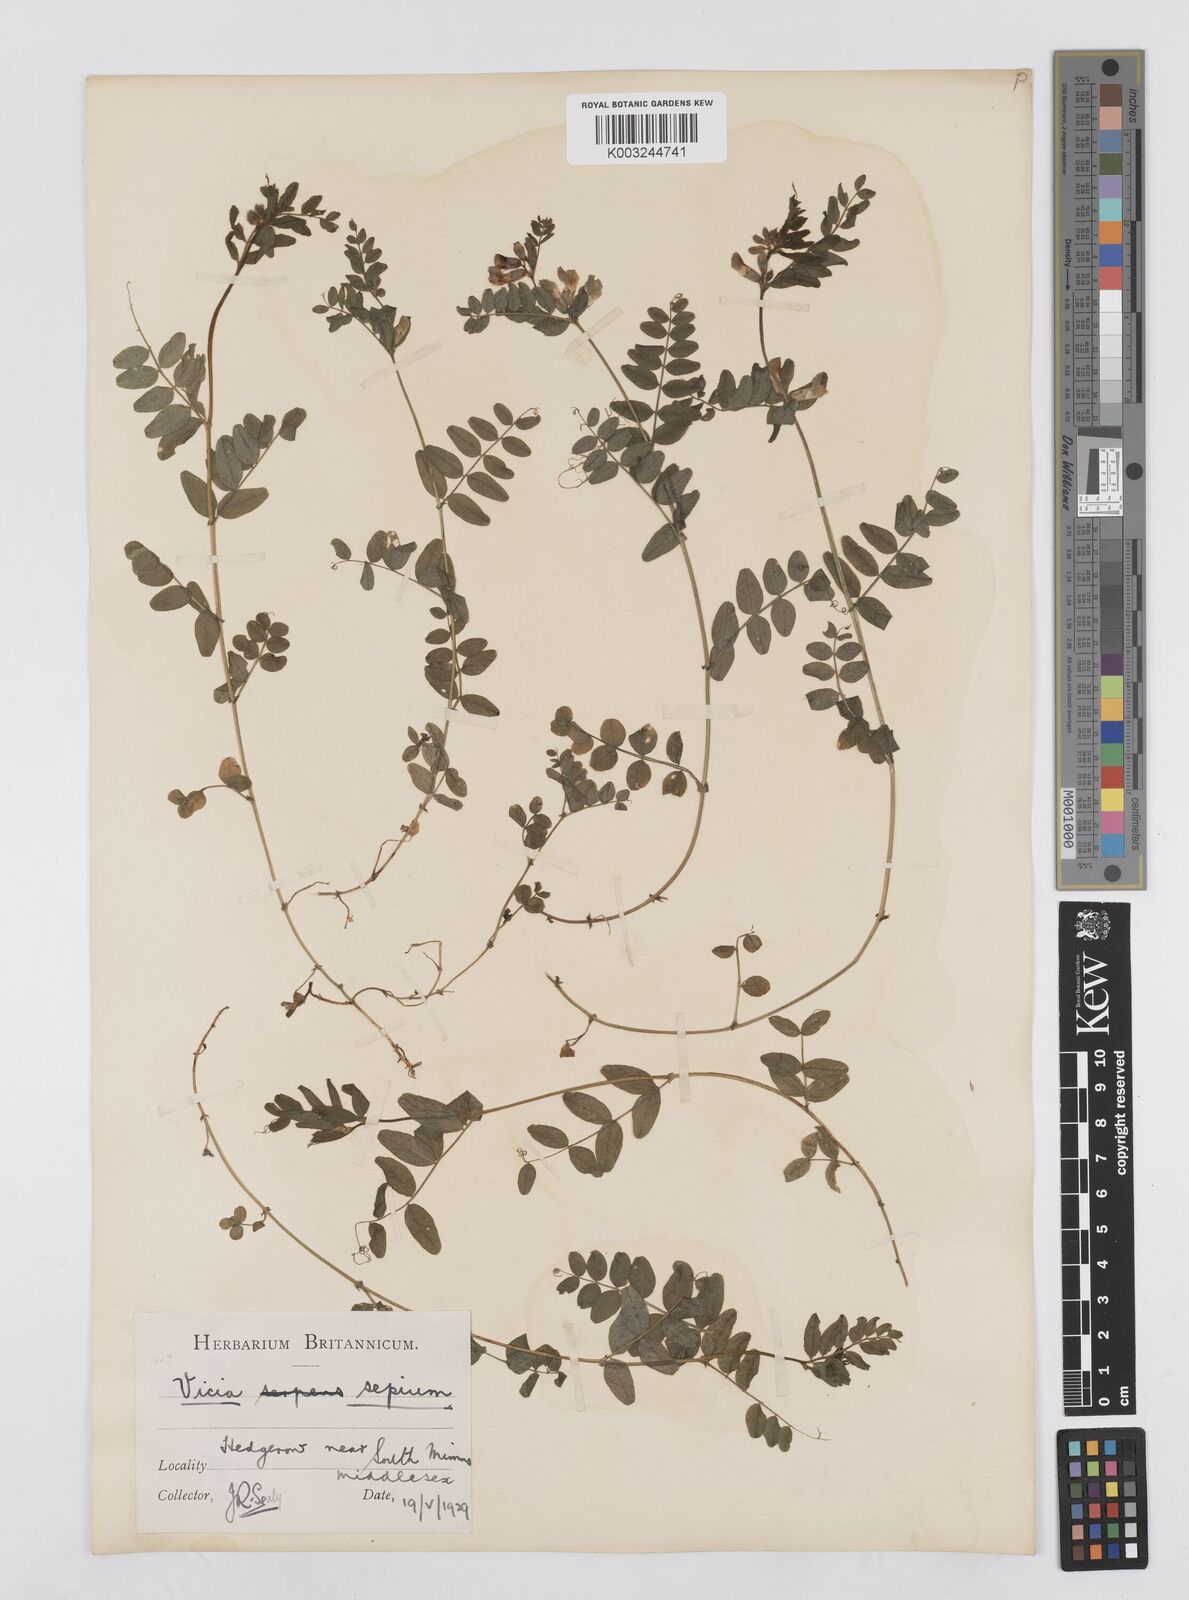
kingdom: Plantae
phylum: Tracheophyta
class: Magnoliopsida
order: Fabales
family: Fabaceae
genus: Vicia
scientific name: Vicia sepium
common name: Bush vetch
